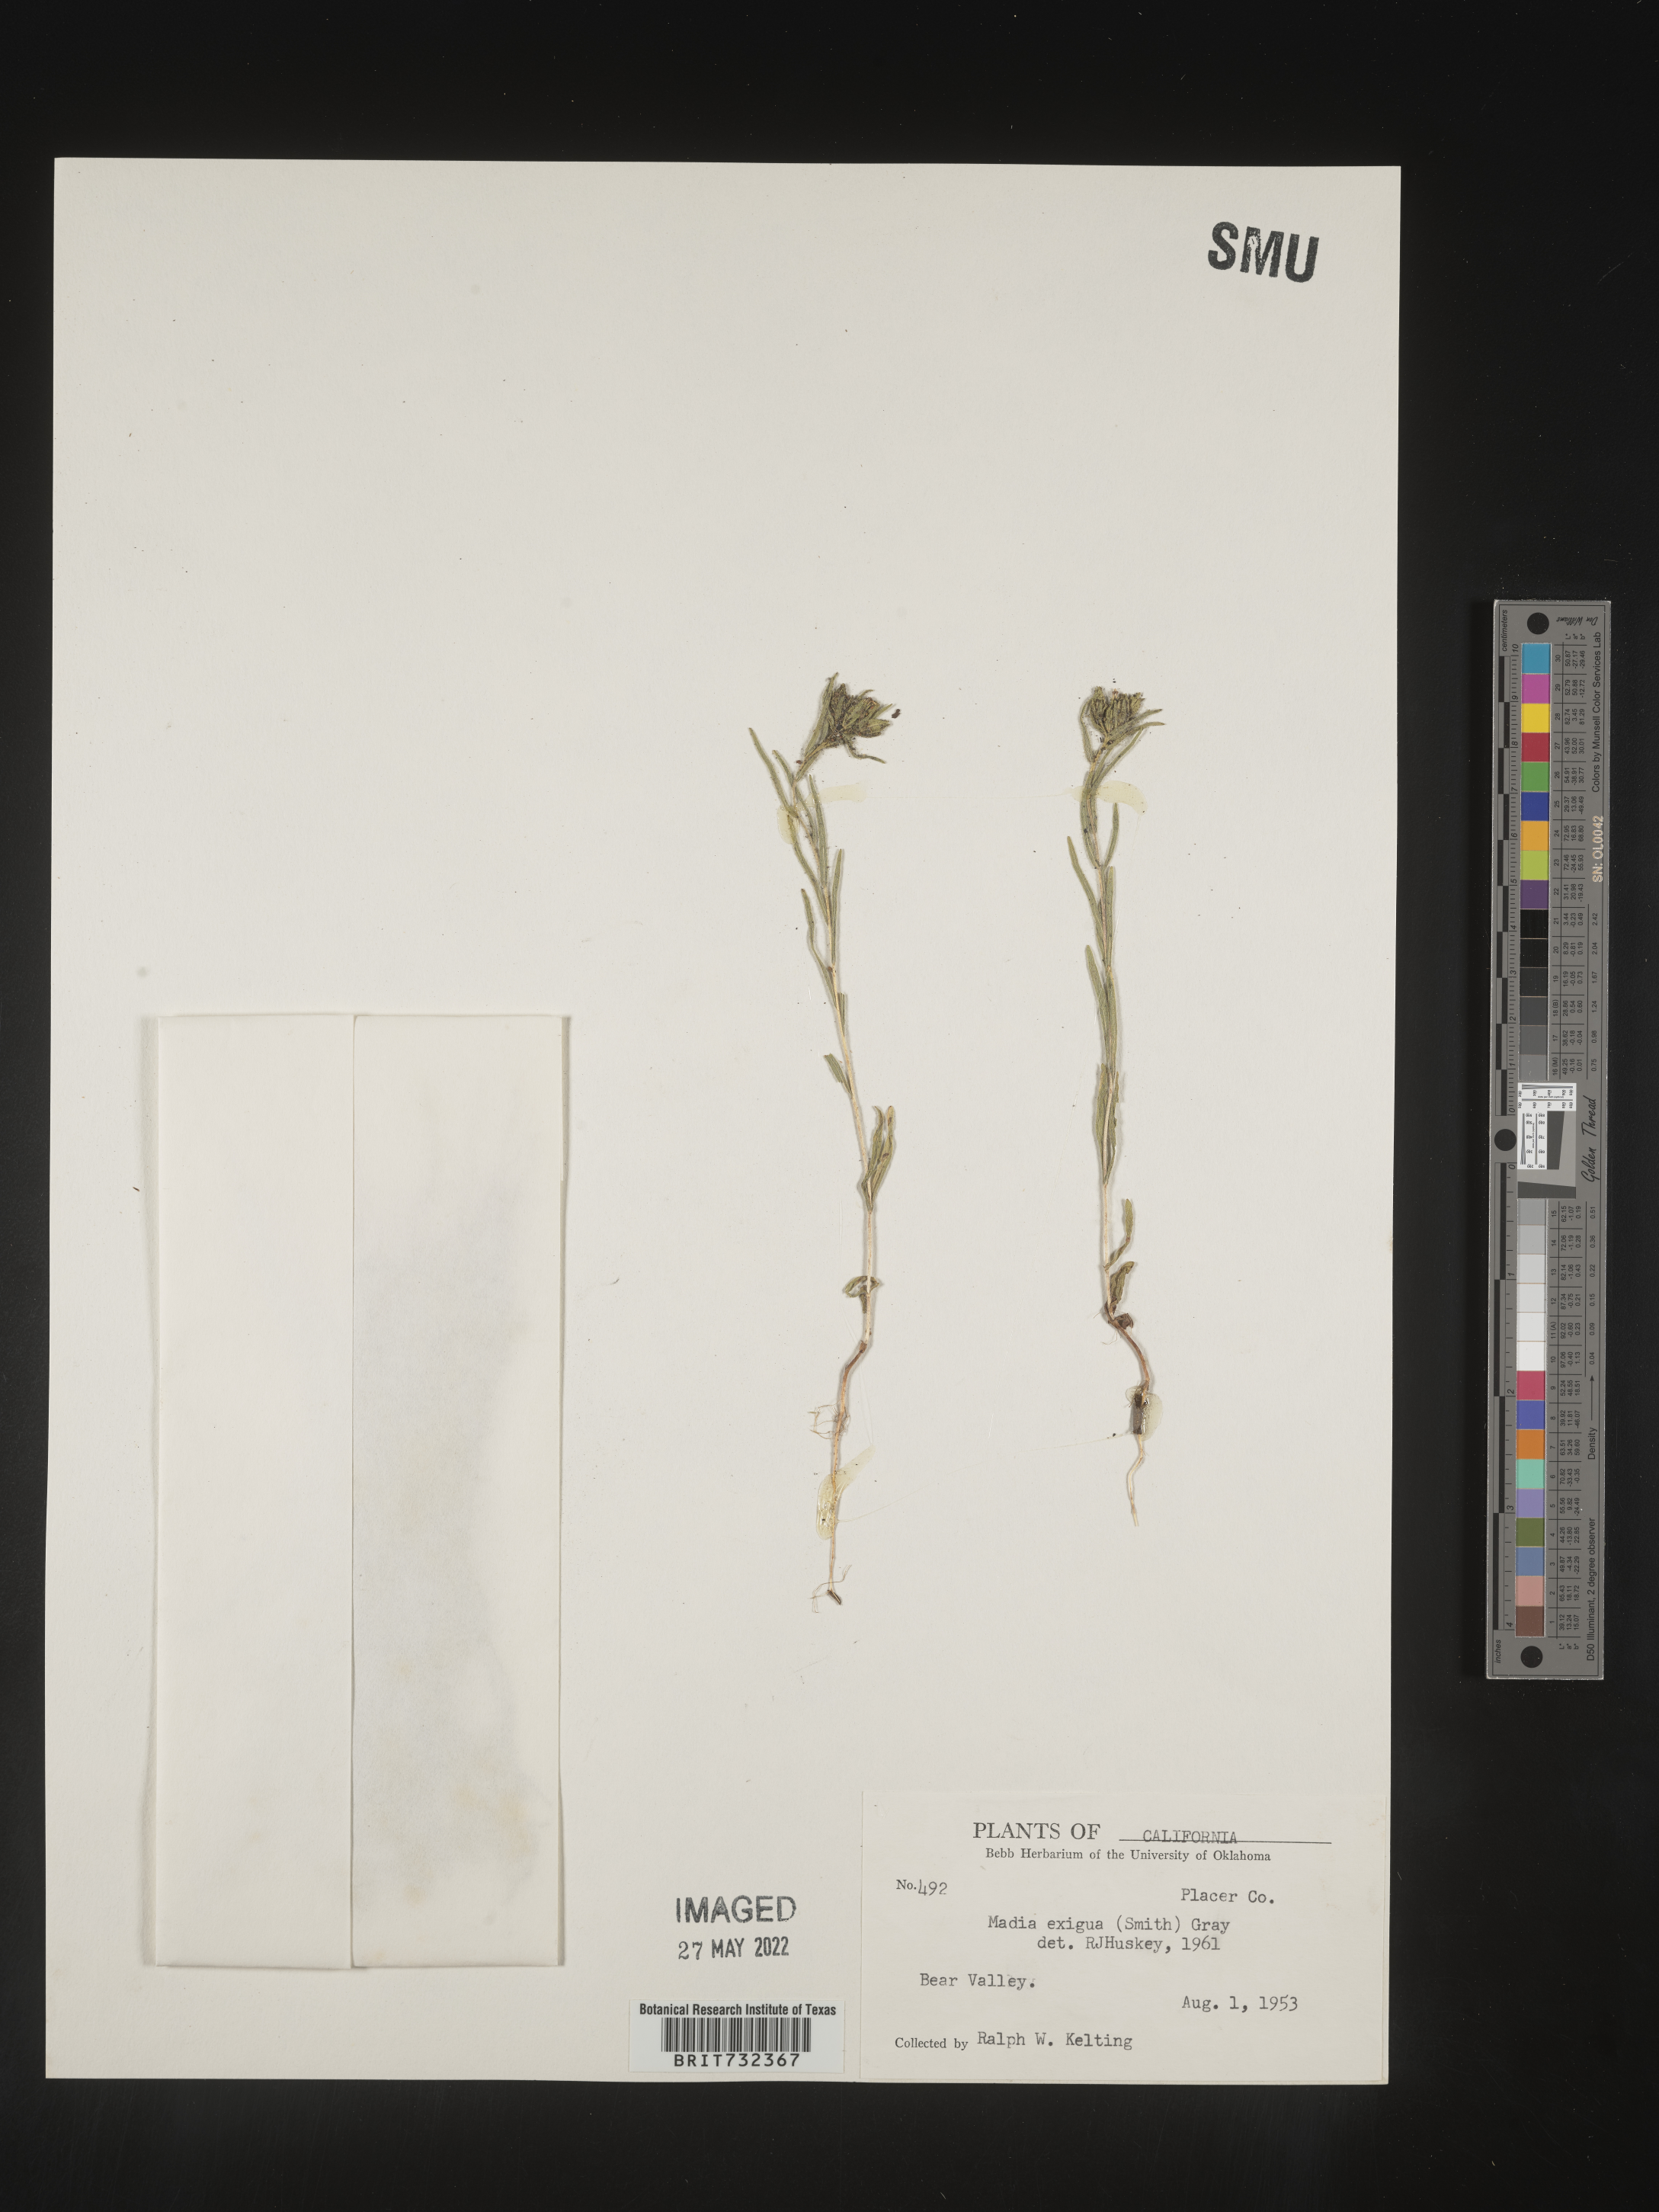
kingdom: Plantae
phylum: Tracheophyta
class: Magnoliopsida
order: Asterales
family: Asteraceae
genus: Madia
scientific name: Madia
